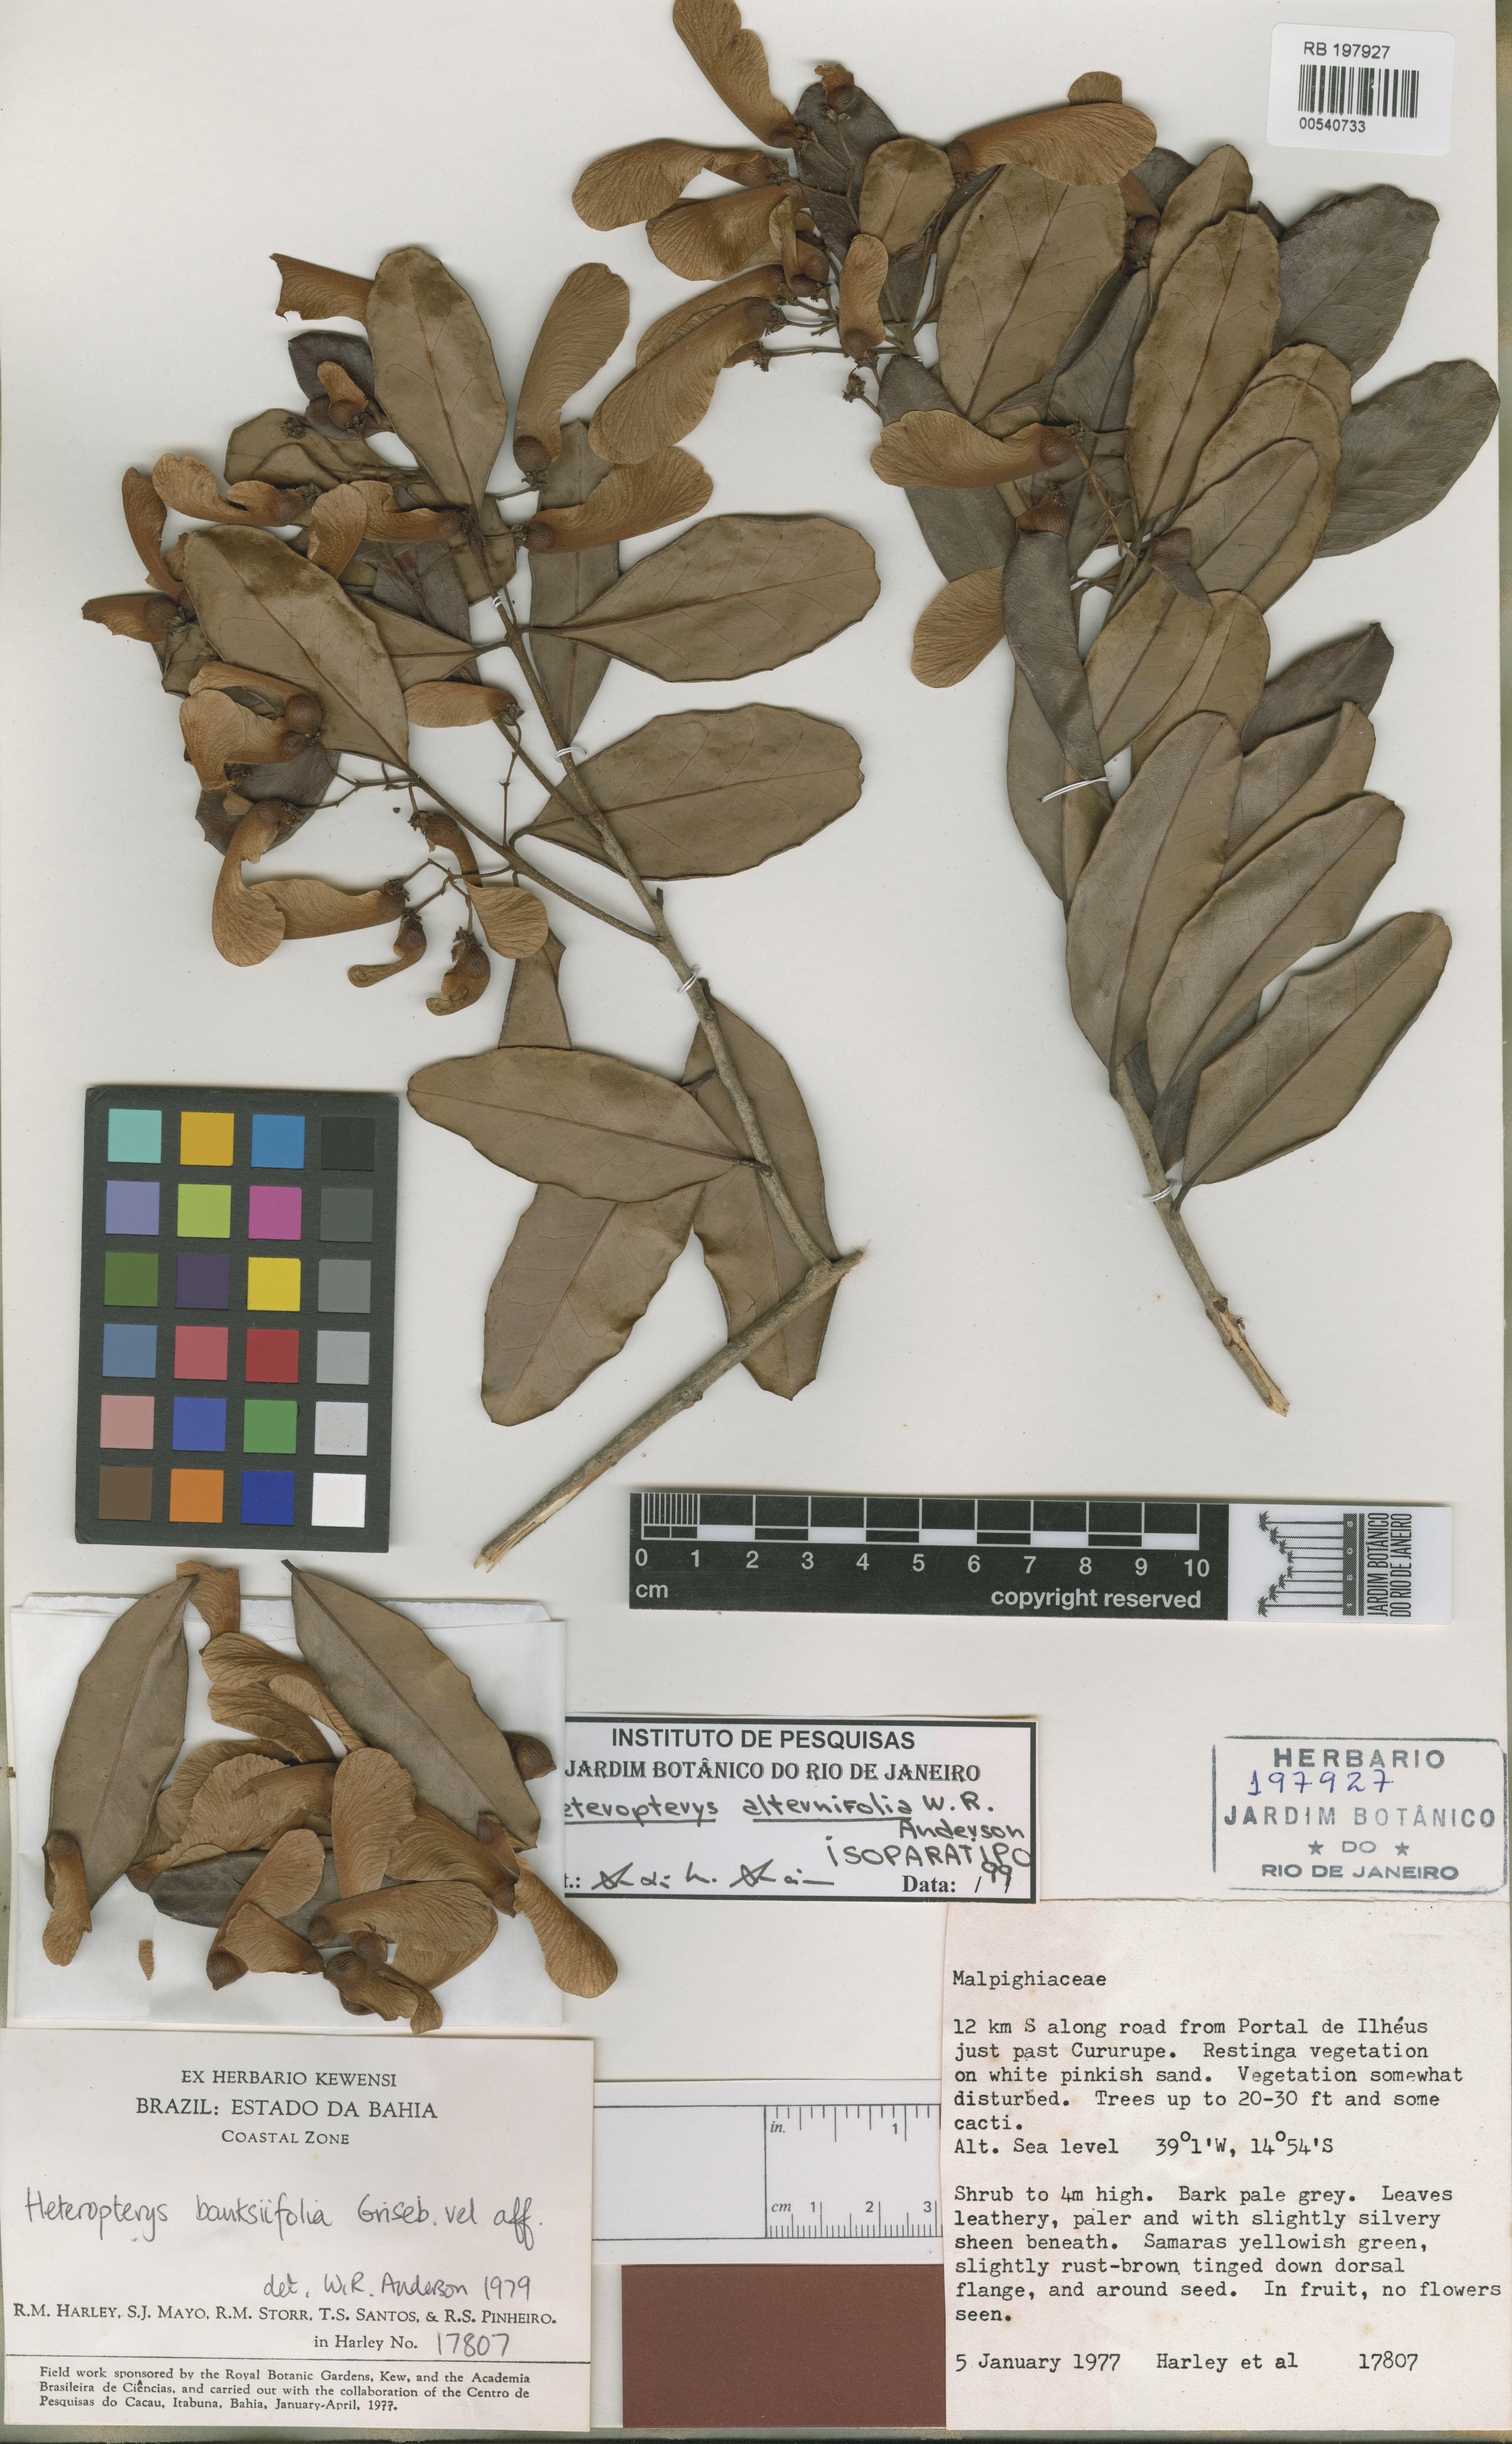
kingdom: Plantae
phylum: Tracheophyta
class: Magnoliopsida
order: Malpighiales
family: Malpighiaceae
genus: Heteropterys
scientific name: Heteropterys alternifolia
